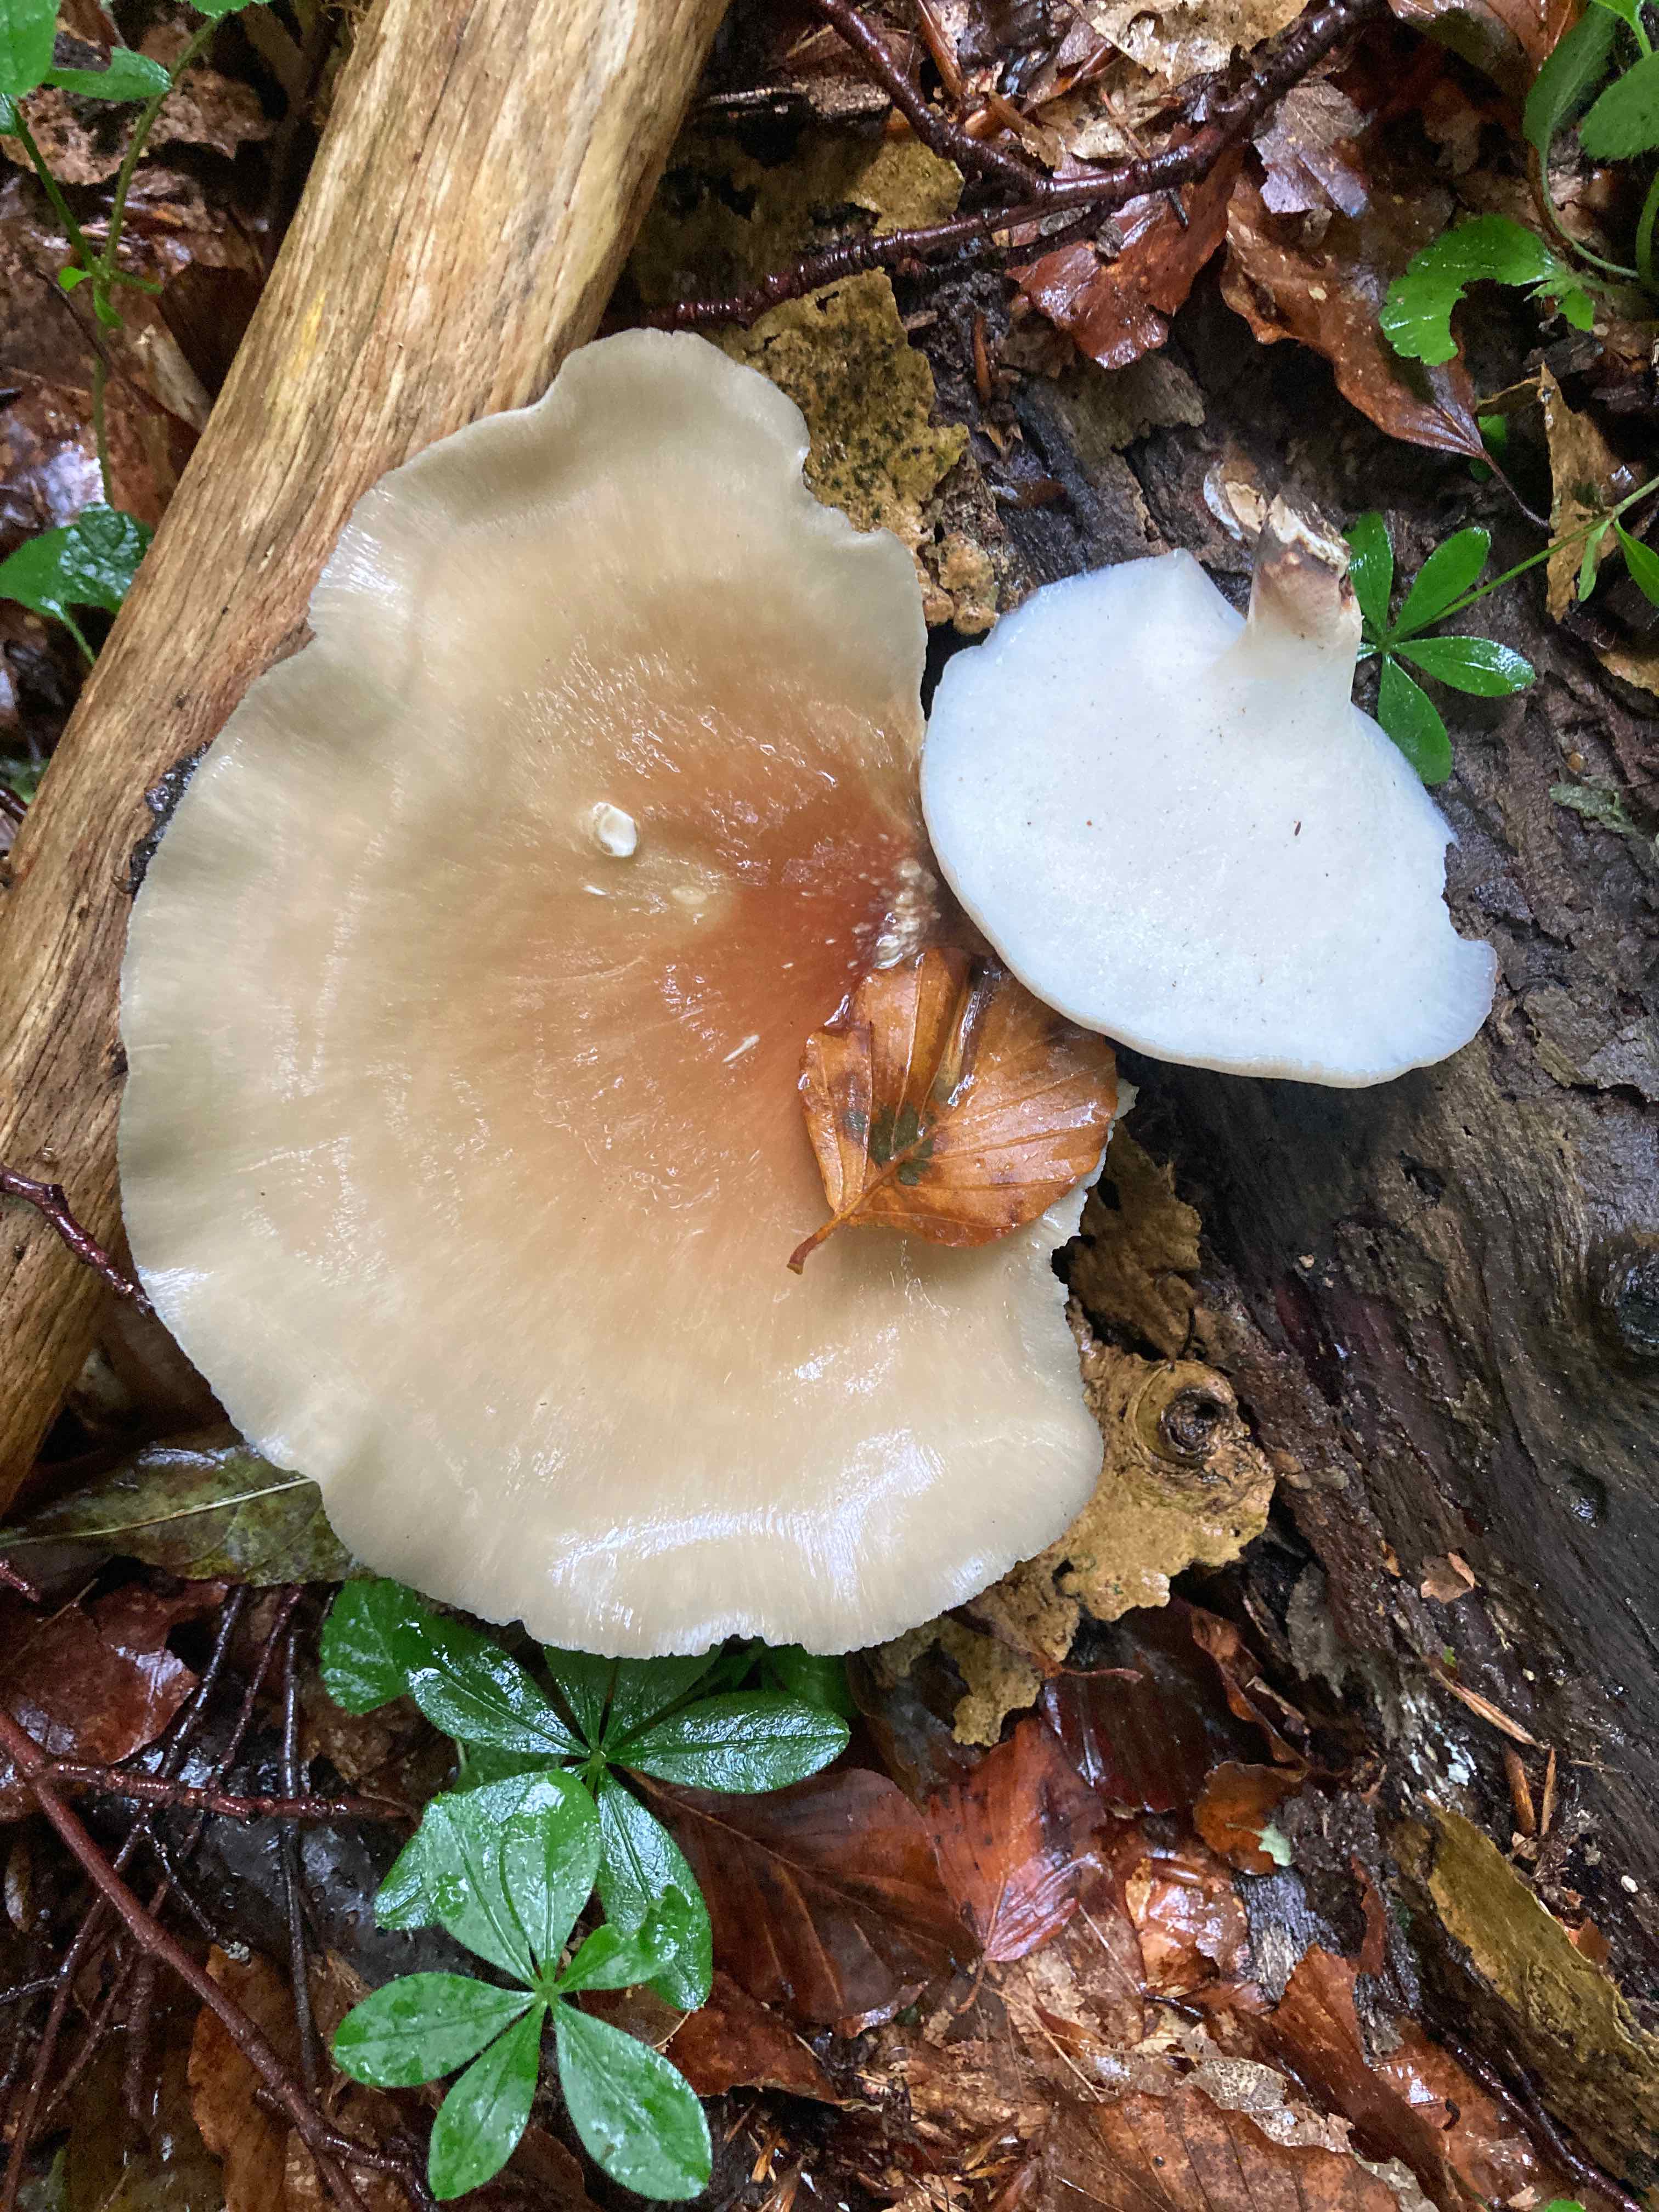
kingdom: Fungi
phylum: Basidiomycota
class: Agaricomycetes
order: Polyporales
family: Polyporaceae
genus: Picipes
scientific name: Picipes badius
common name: kastaniebrun stilkporesvamp
